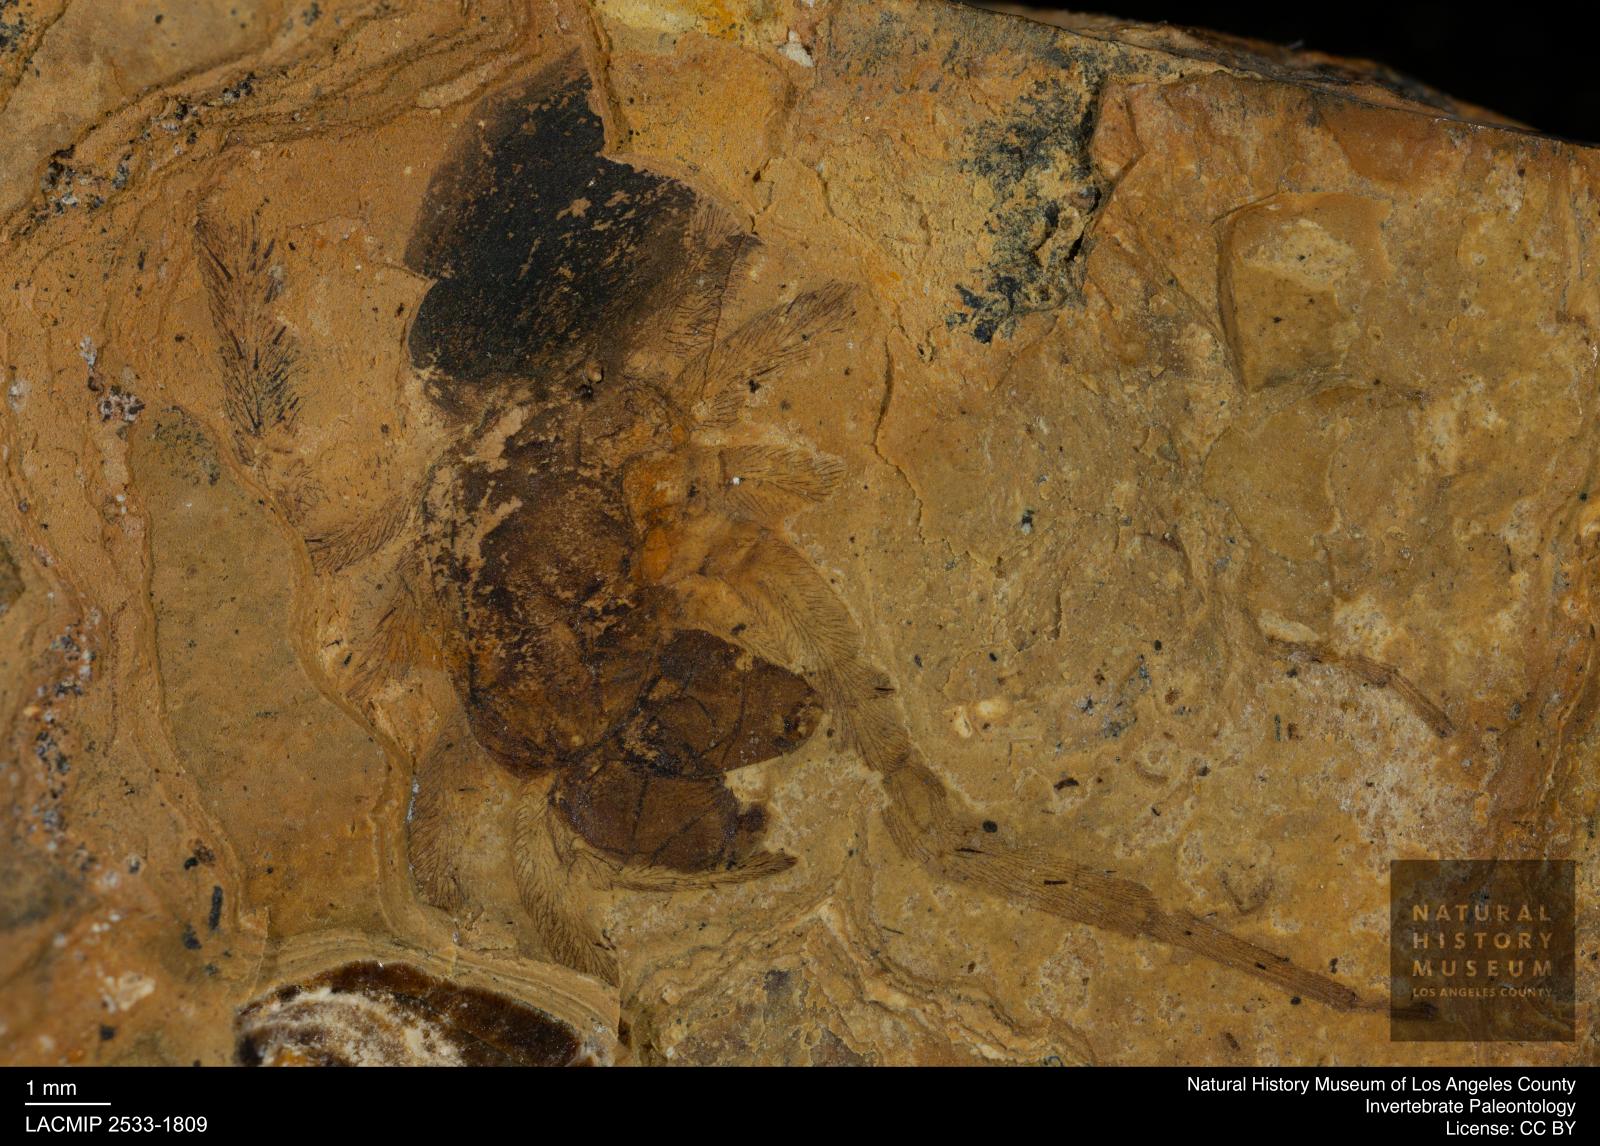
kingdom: Animalia
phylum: Arthropoda
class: Arachnida
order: Araneae
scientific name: Araneae
